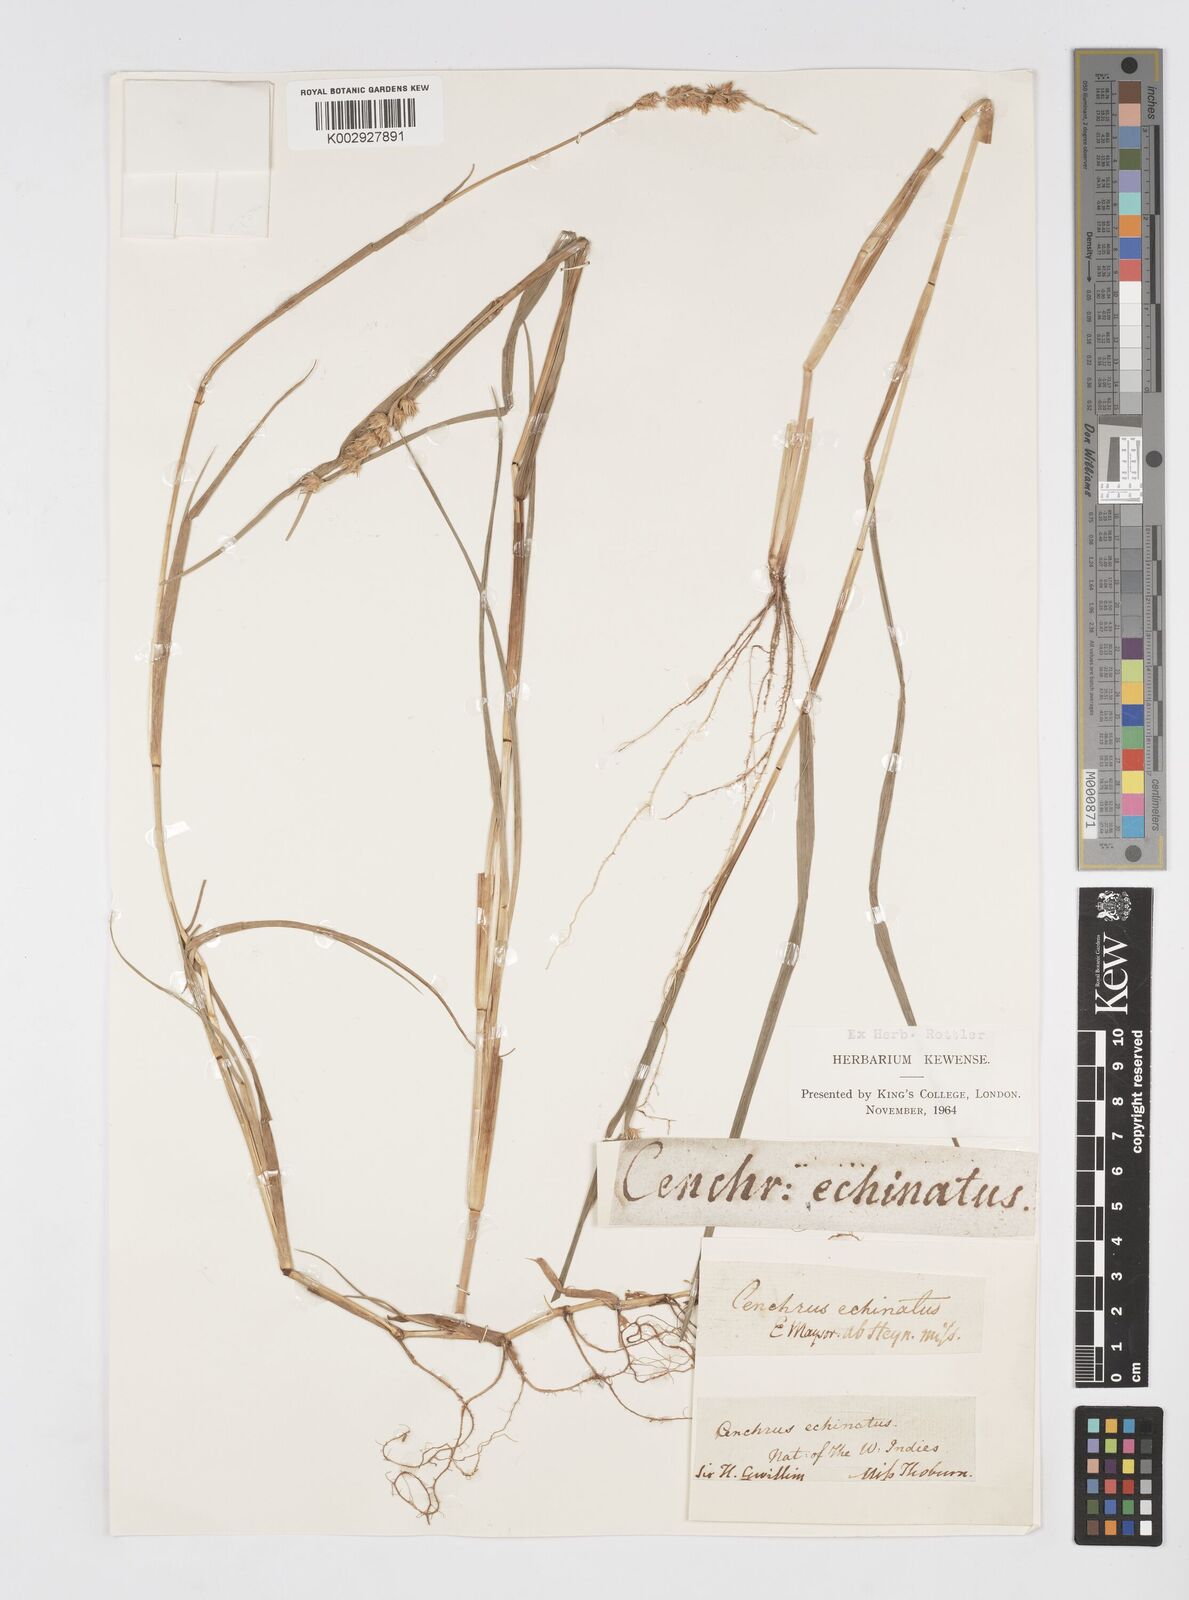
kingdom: Plantae
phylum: Tracheophyta
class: Liliopsida
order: Poales
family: Poaceae
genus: Cenchrus
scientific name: Cenchrus echinatus
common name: Southern sandbur
